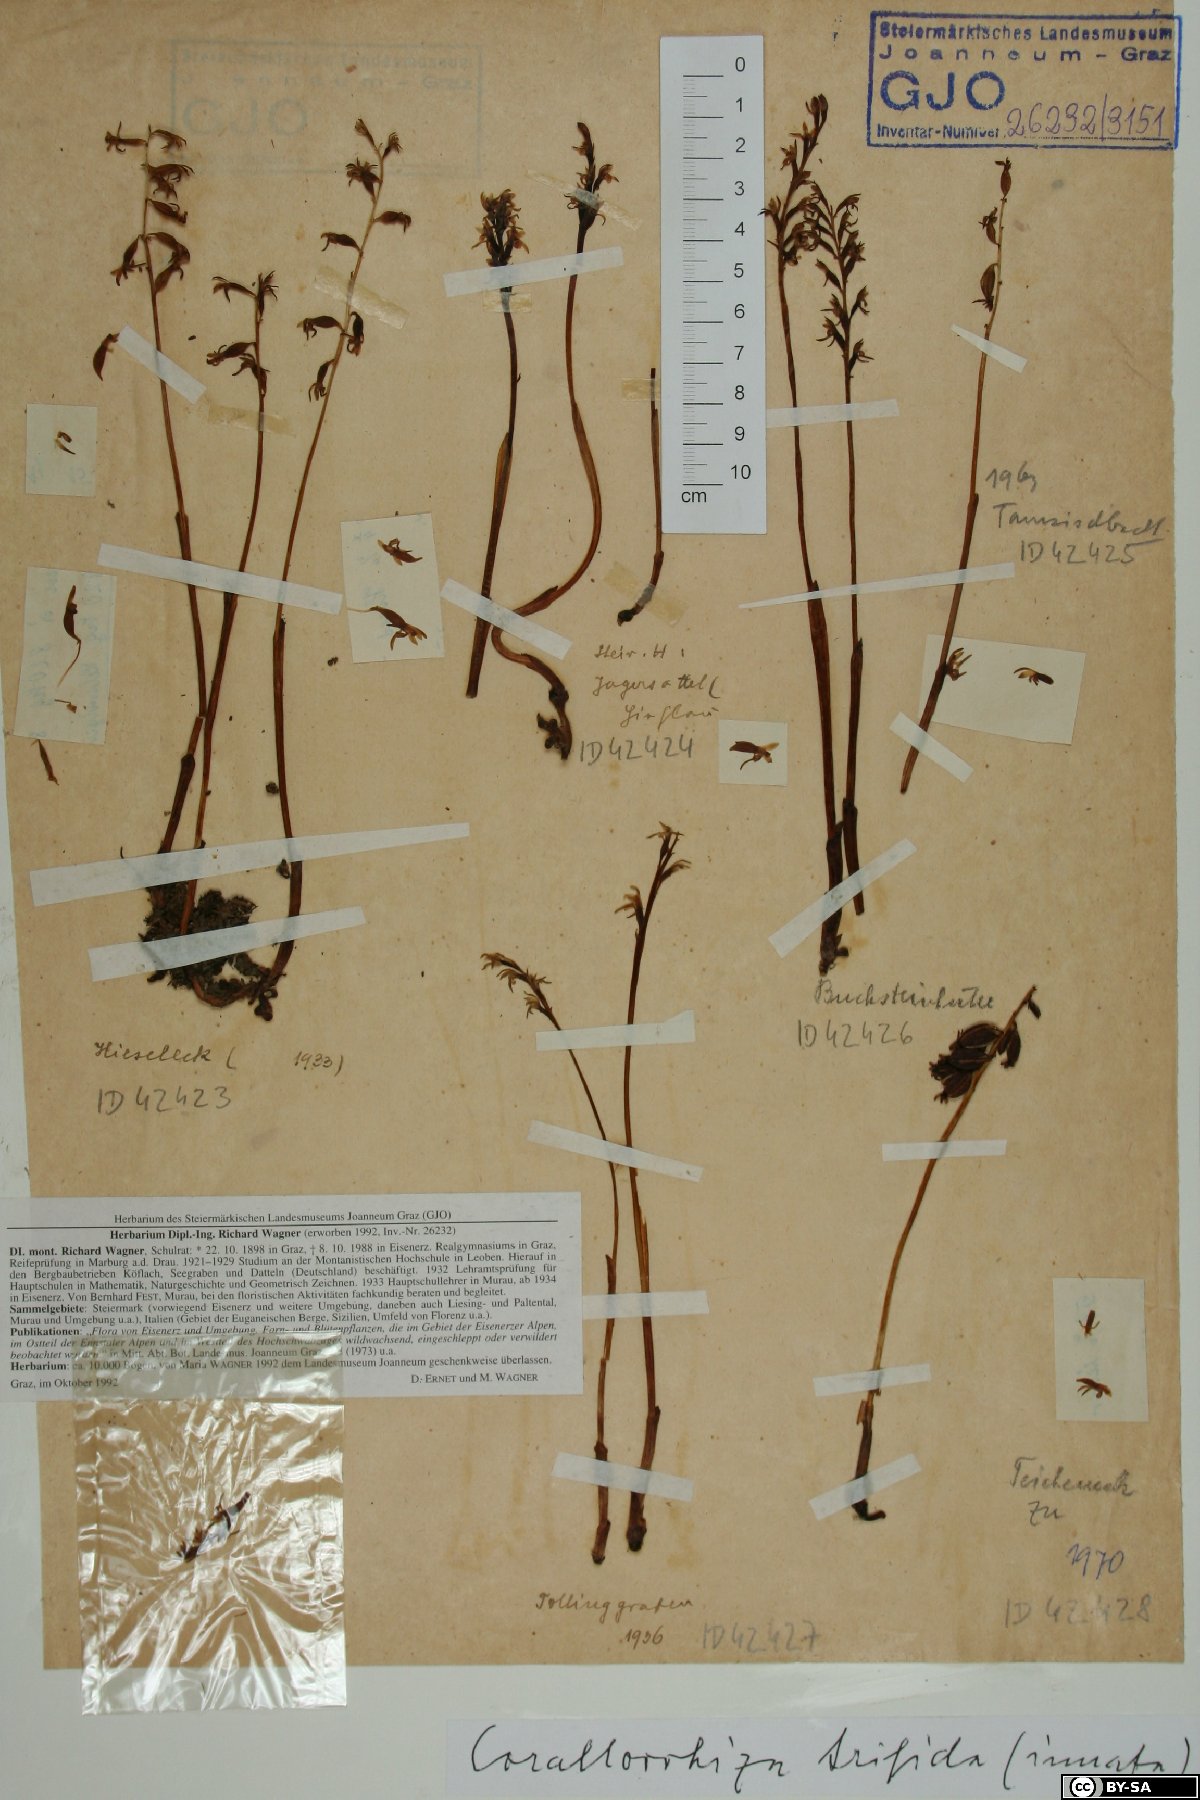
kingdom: Plantae
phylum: Tracheophyta
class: Liliopsida
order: Asparagales
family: Orchidaceae
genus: Corallorhiza
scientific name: Corallorhiza trifida
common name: Yellow coralroot
